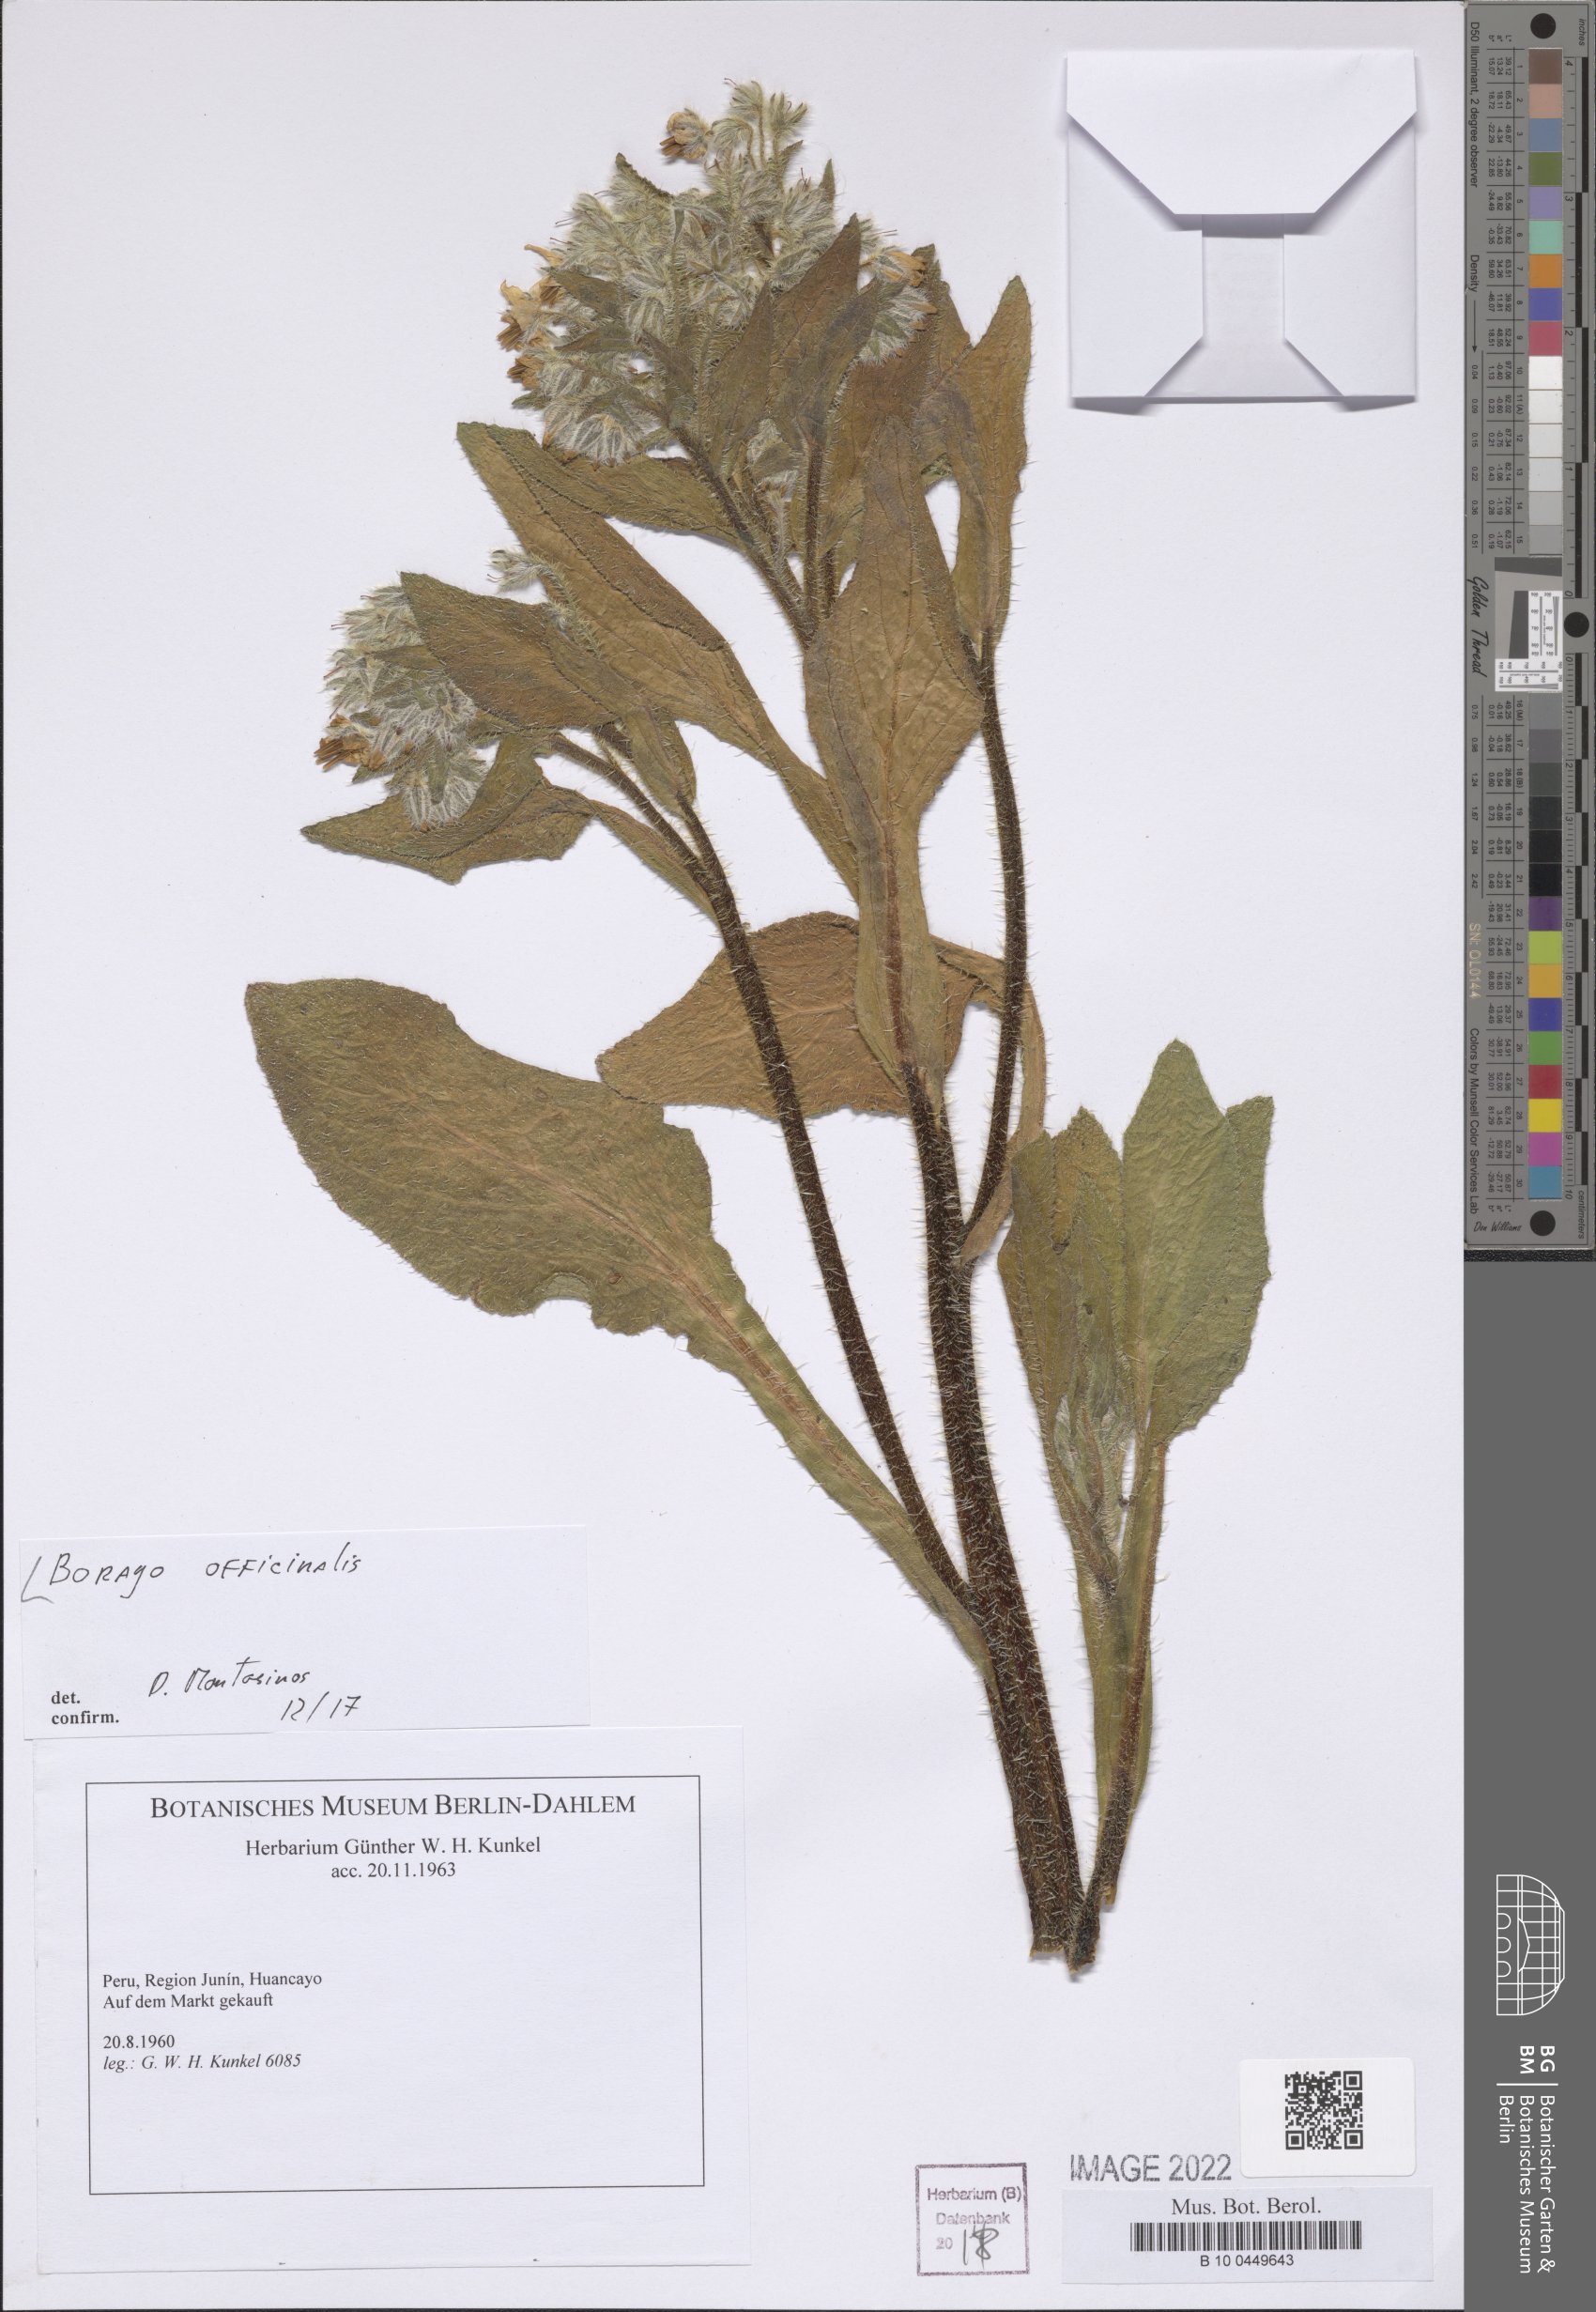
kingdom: Plantae
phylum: Tracheophyta
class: Magnoliopsida
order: Boraginales
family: Boraginaceae
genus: Borago
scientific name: Borago officinalis
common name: Borage
